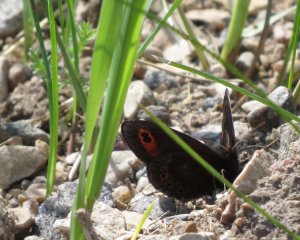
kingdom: Animalia
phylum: Arthropoda
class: Insecta
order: Lepidoptera
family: Nymphalidae
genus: Erebia
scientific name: Erebia epipsodea
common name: Common Alpine
